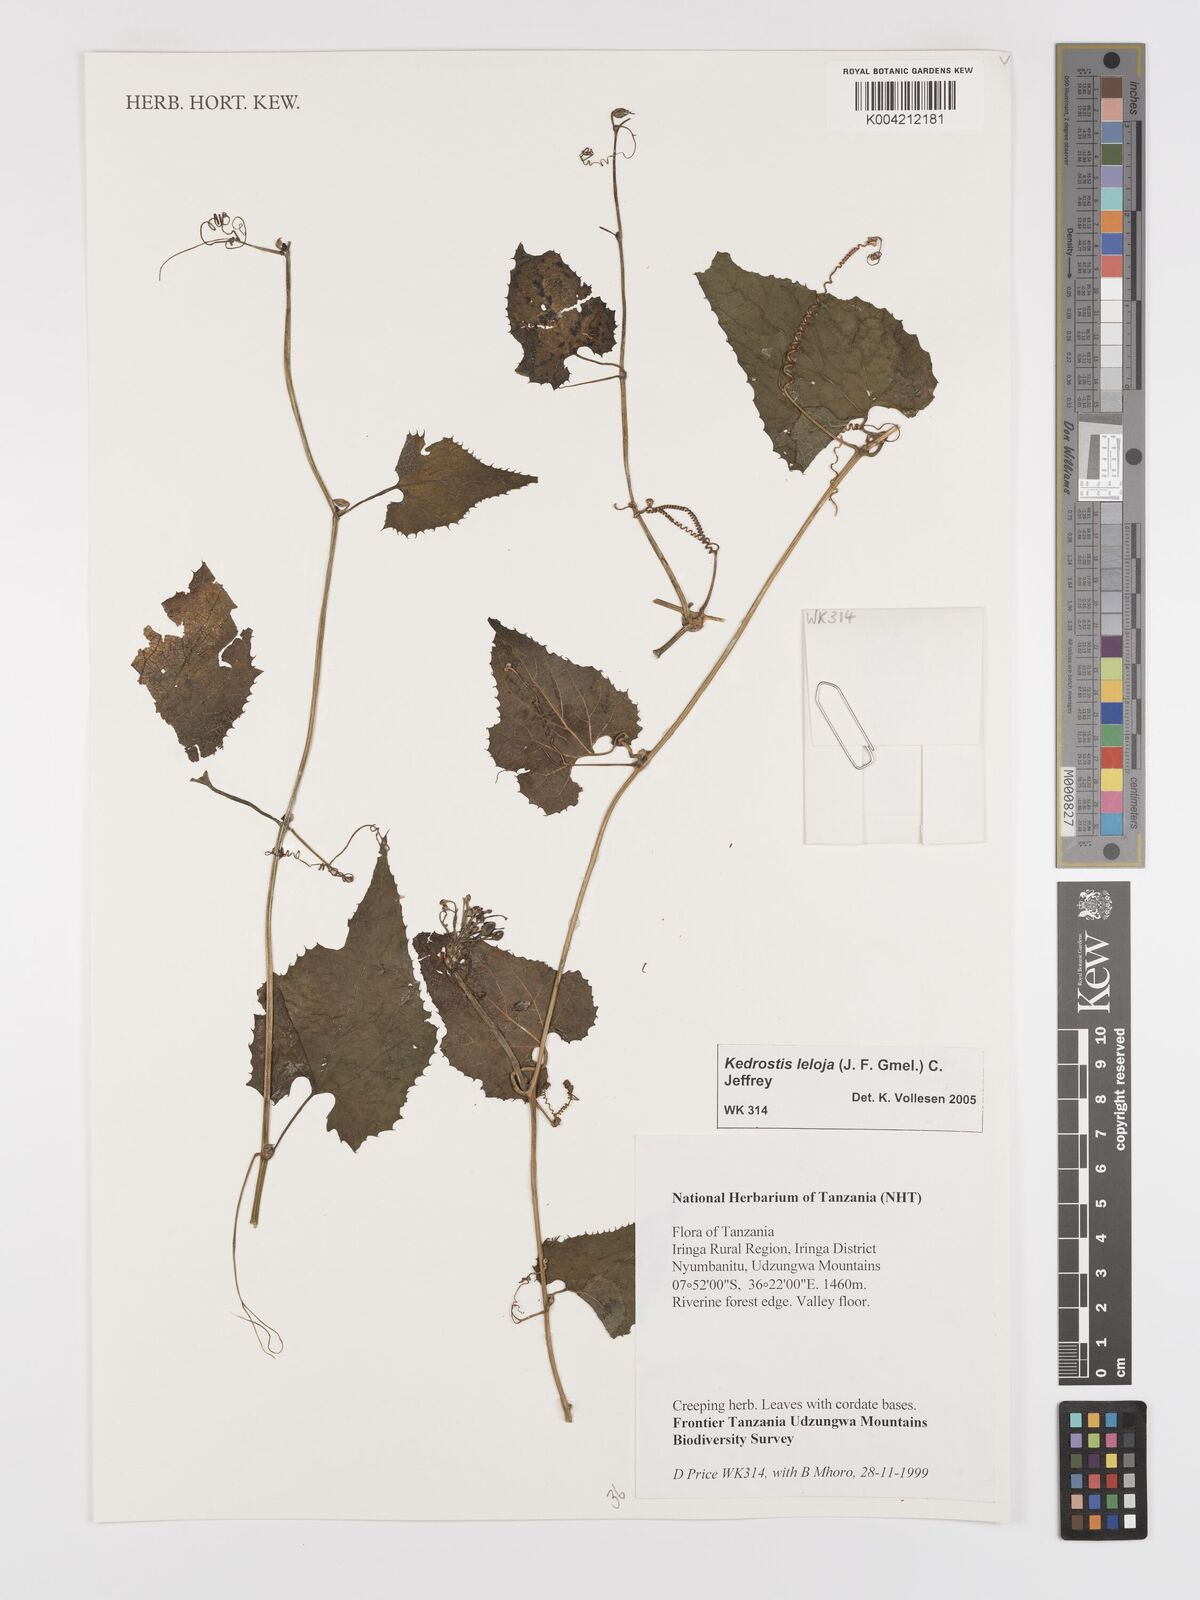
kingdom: Plantae
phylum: Tracheophyta
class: Magnoliopsida
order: Cucurbitales
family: Cucurbitaceae
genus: Kedrostis
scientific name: Kedrostis leloja
